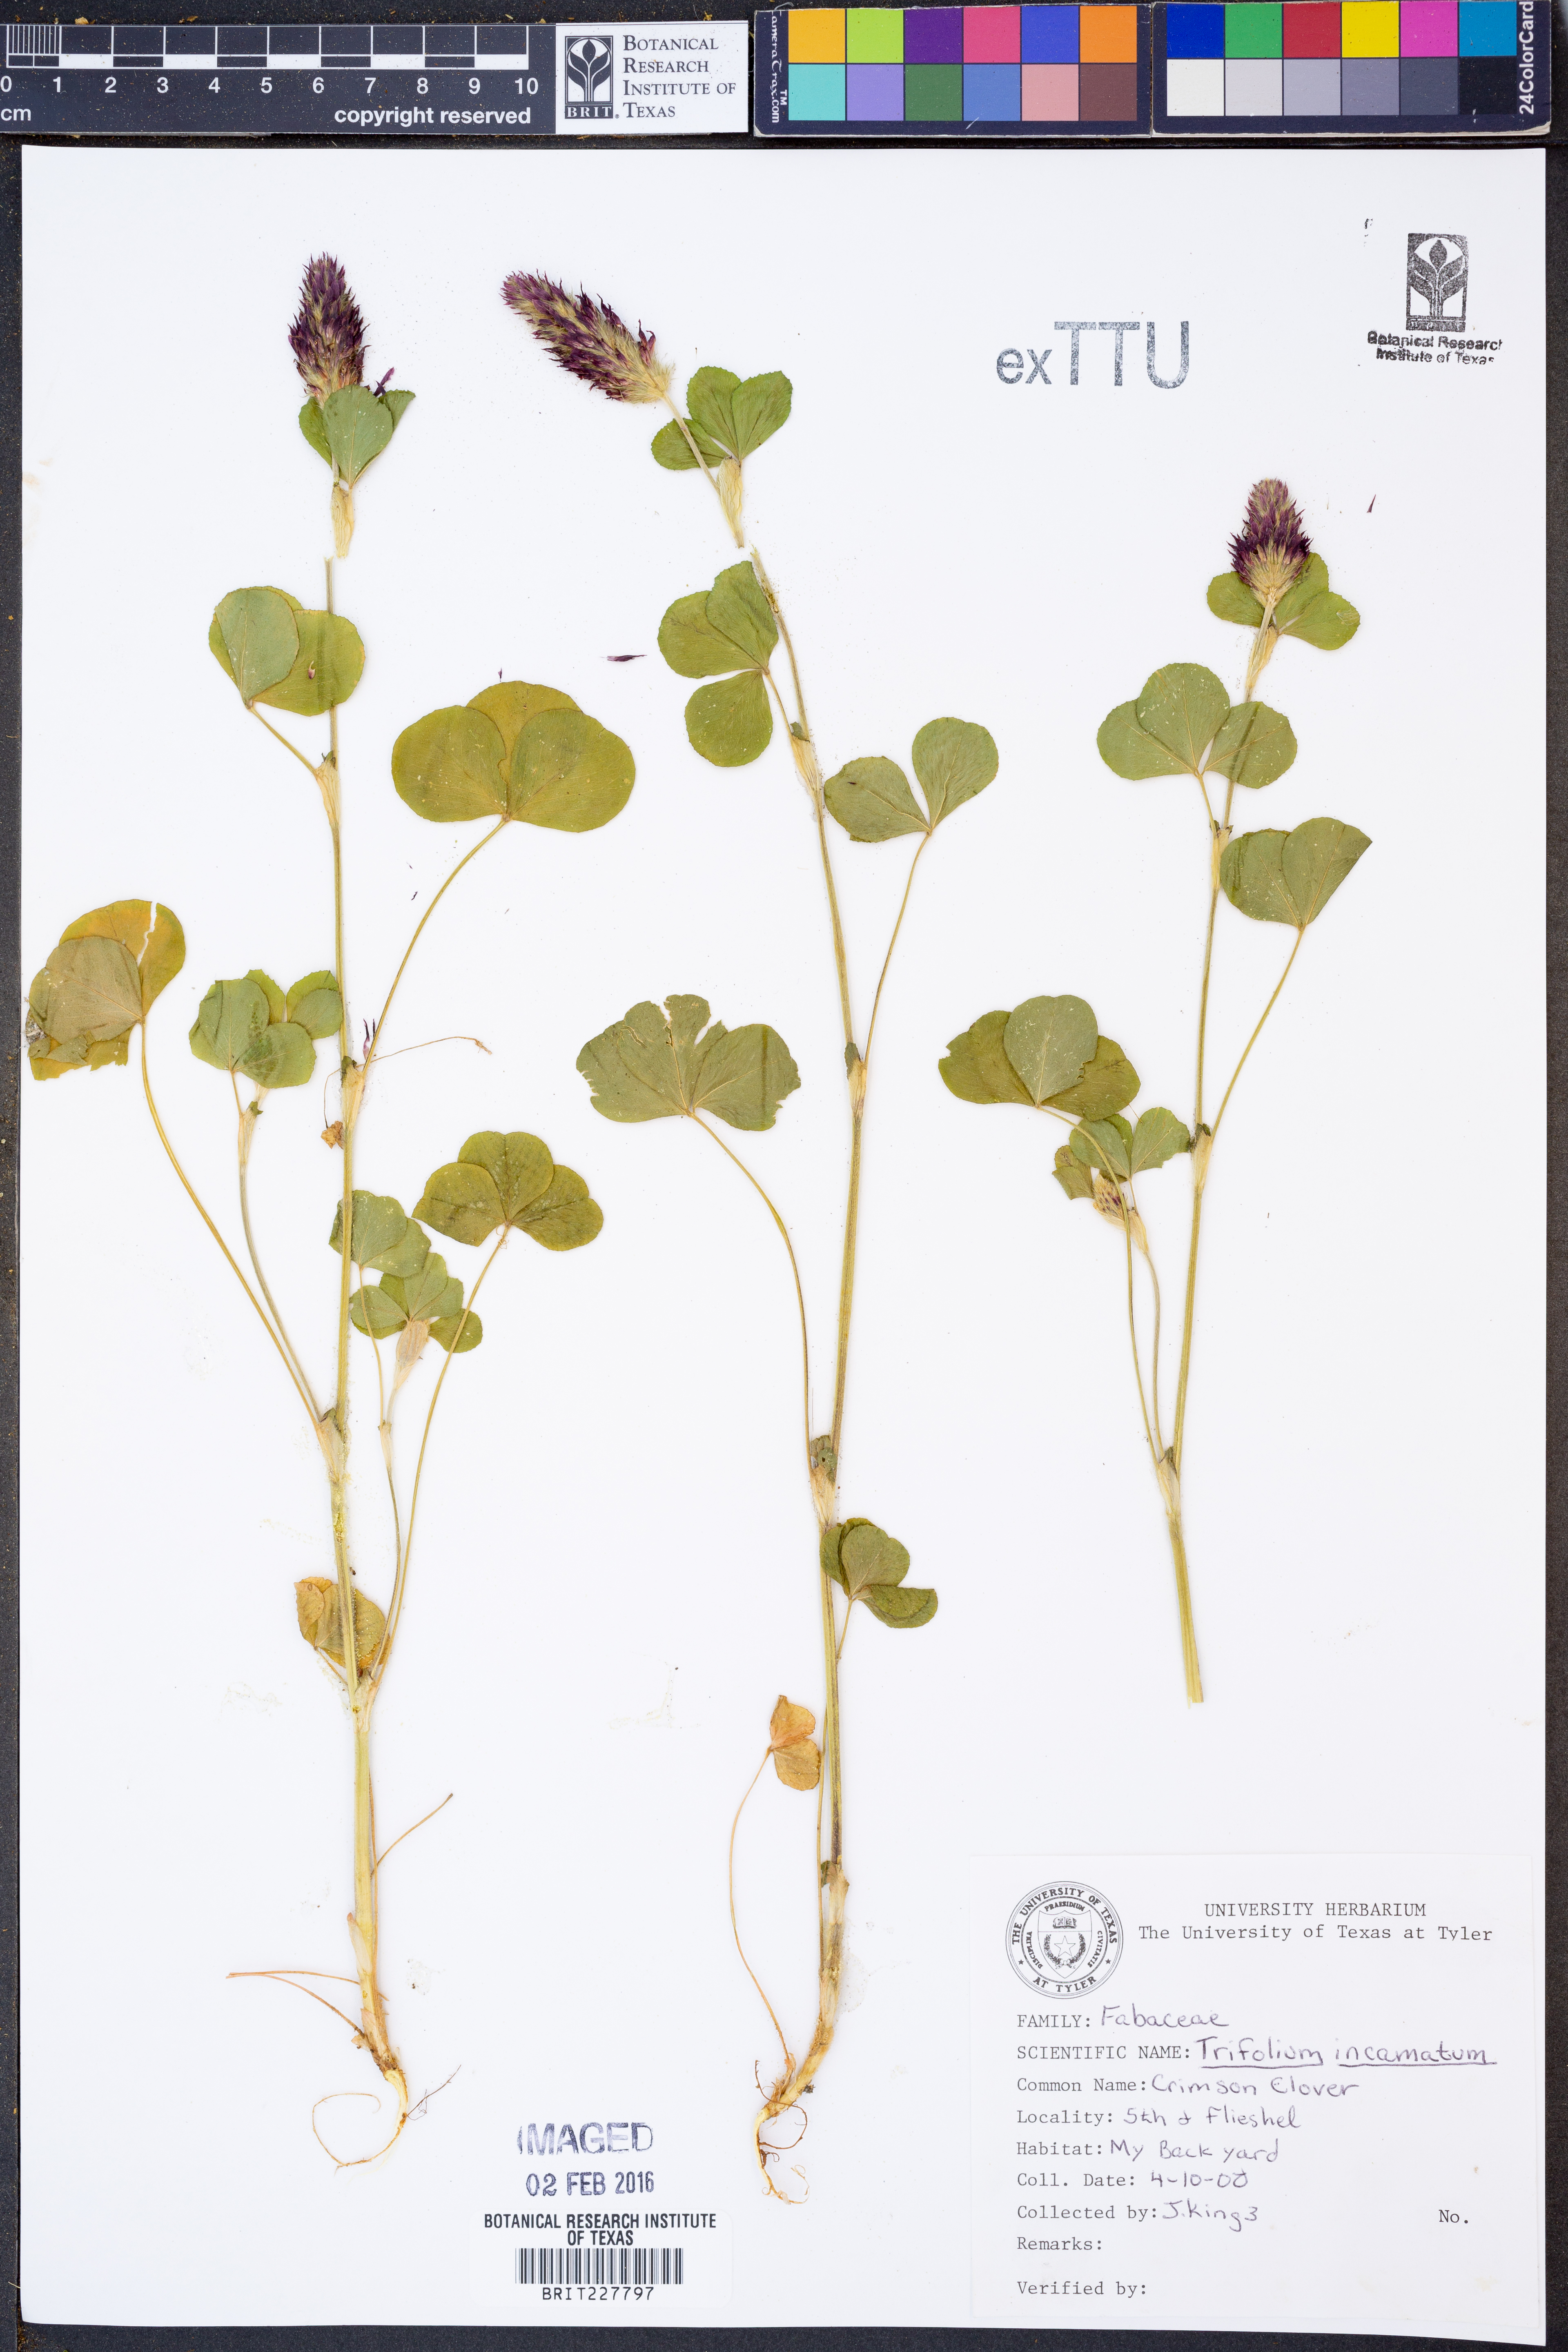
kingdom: Plantae
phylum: Tracheophyta
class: Magnoliopsida
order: Fabales
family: Fabaceae
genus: Trifolium
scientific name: Trifolium incarnatum
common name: Crimson clover
